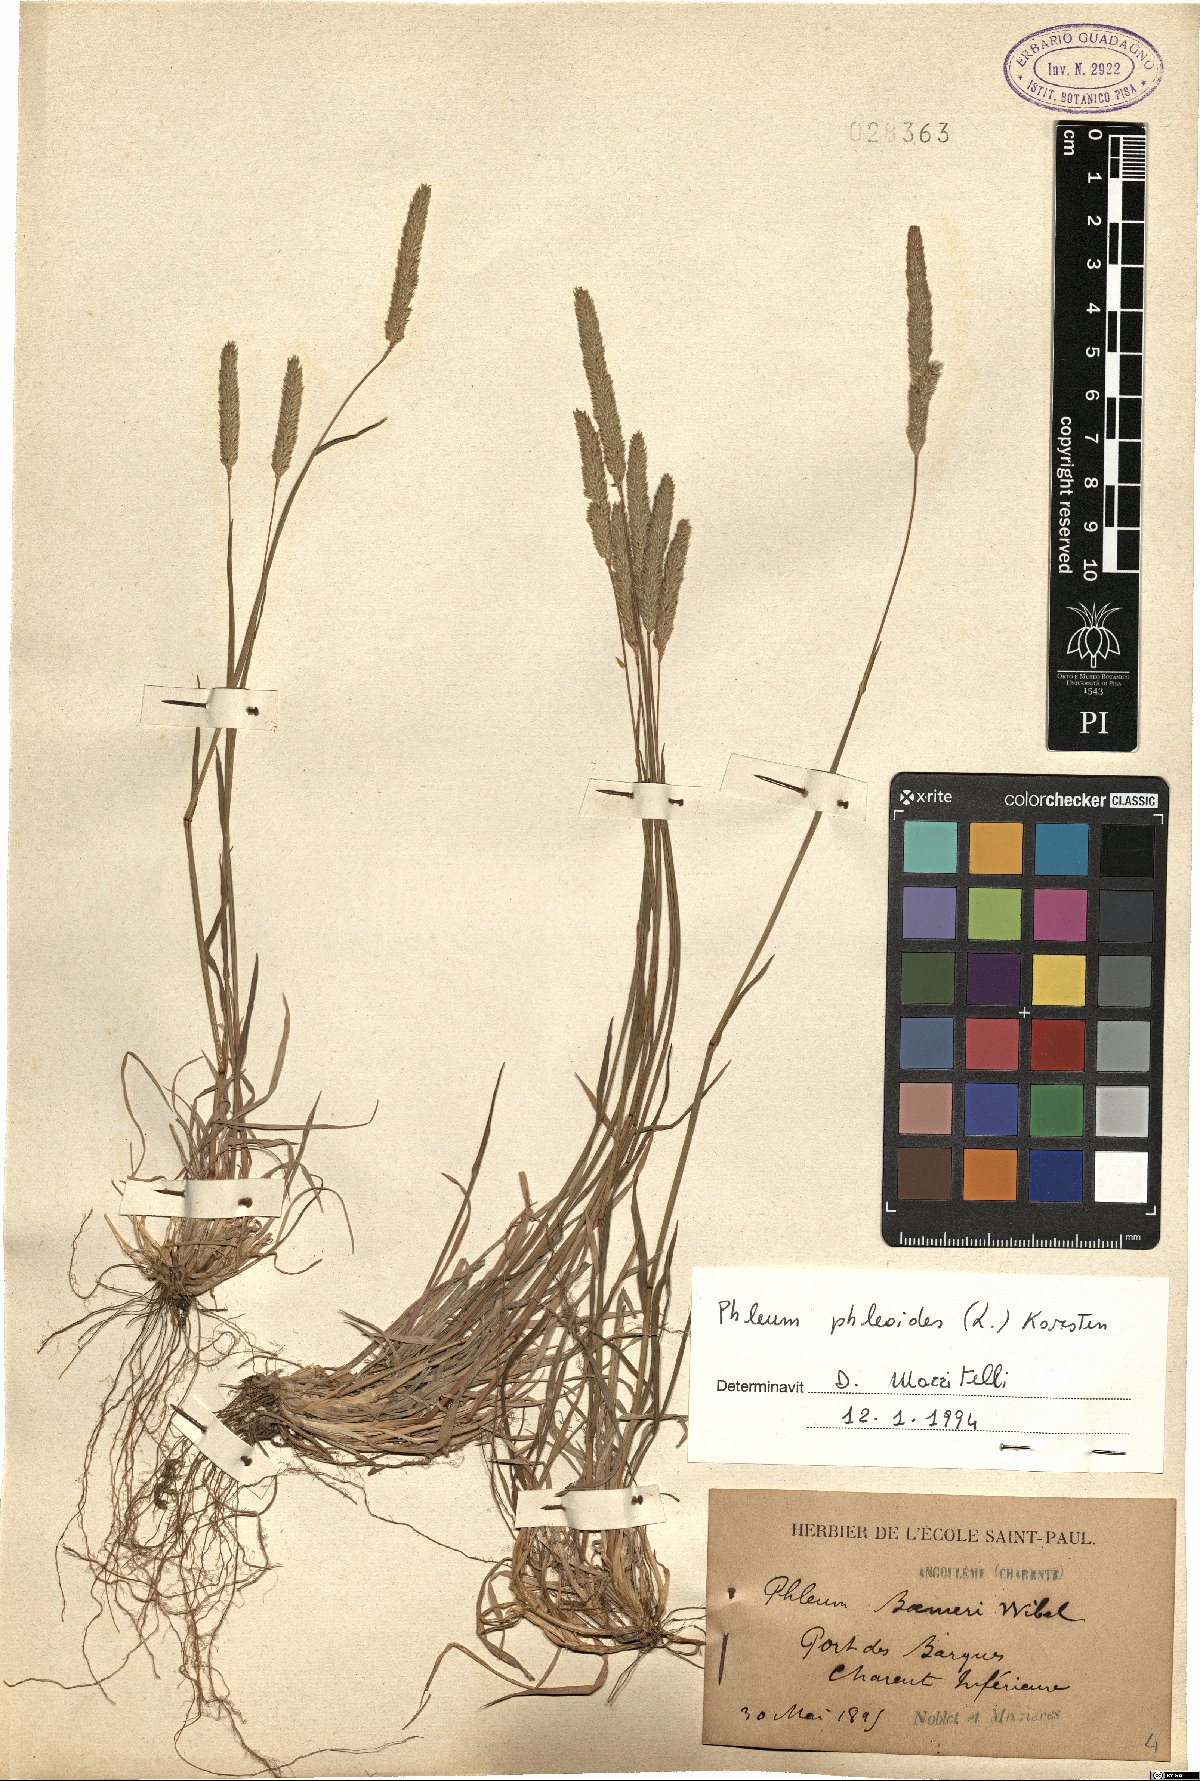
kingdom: Plantae
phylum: Tracheophyta
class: Liliopsida
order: Poales
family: Poaceae
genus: Phleum
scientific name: Phleum phleoides
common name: Purple-stem cat's-tail
